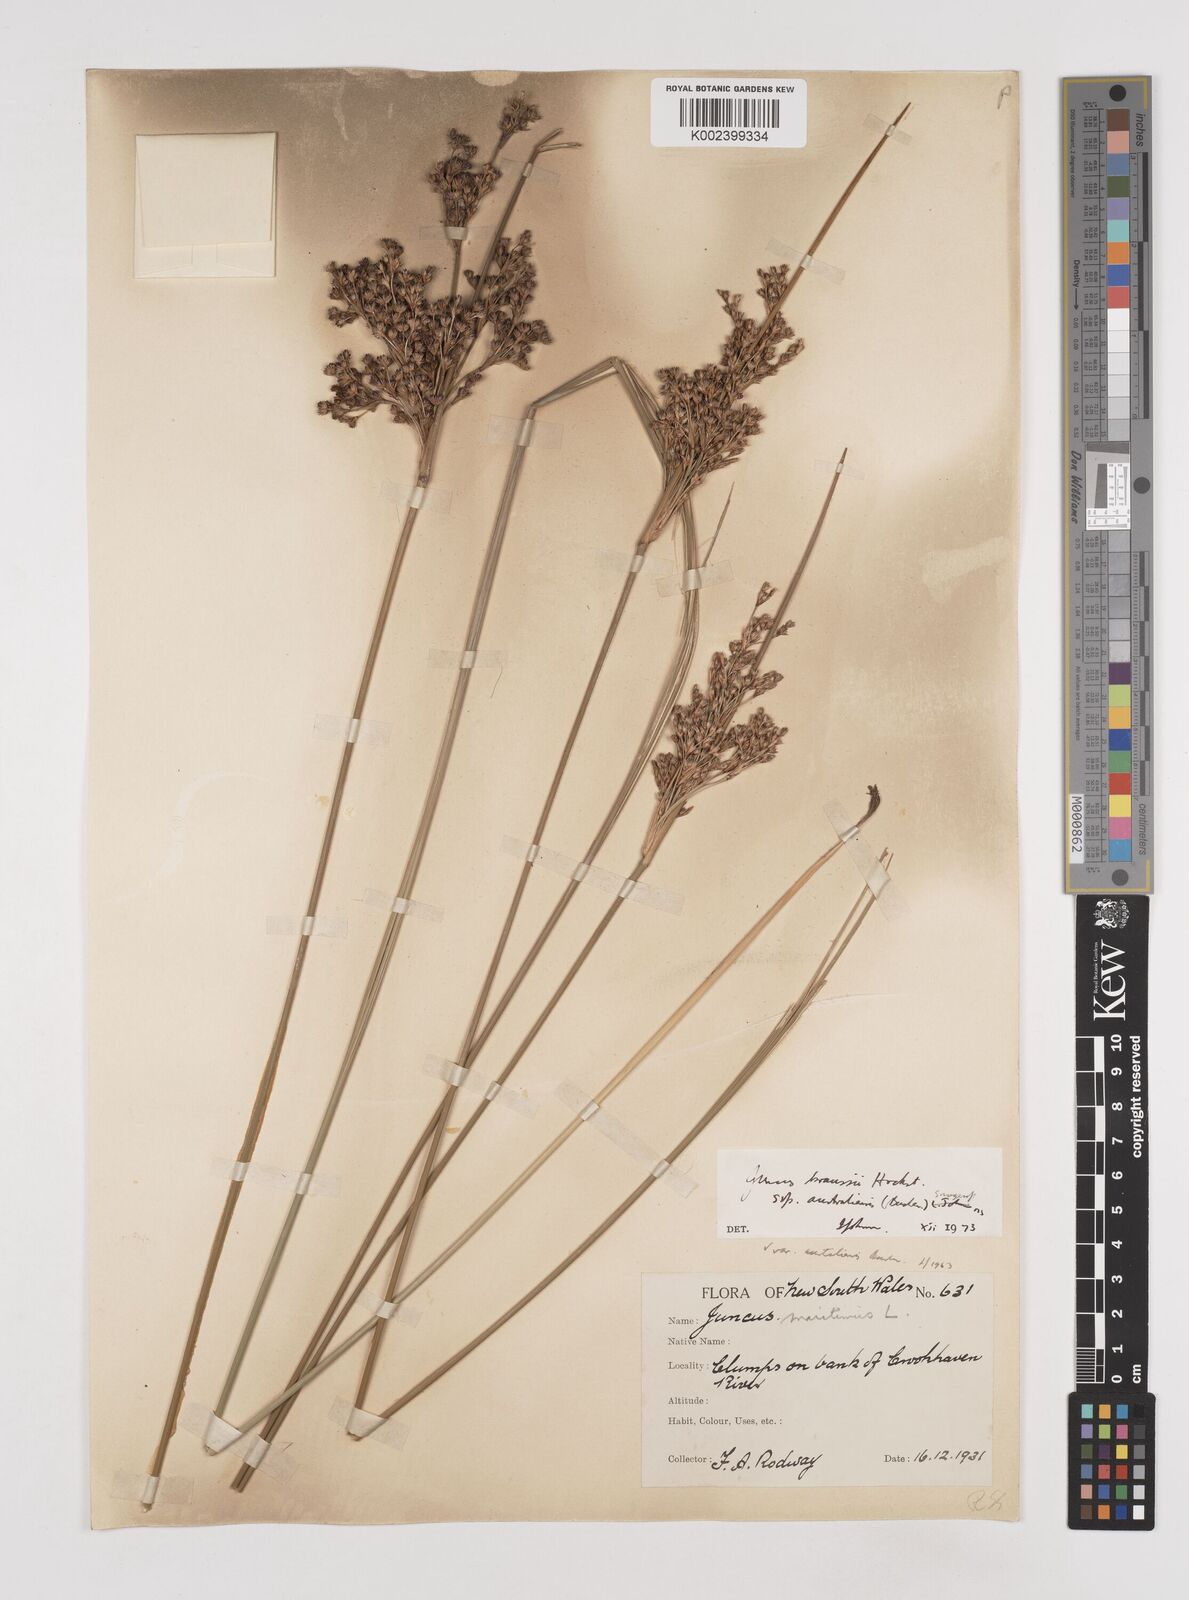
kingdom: Plantae
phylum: Tracheophyta
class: Liliopsida
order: Poales
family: Juncaceae
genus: Juncus
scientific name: Juncus kraussii
